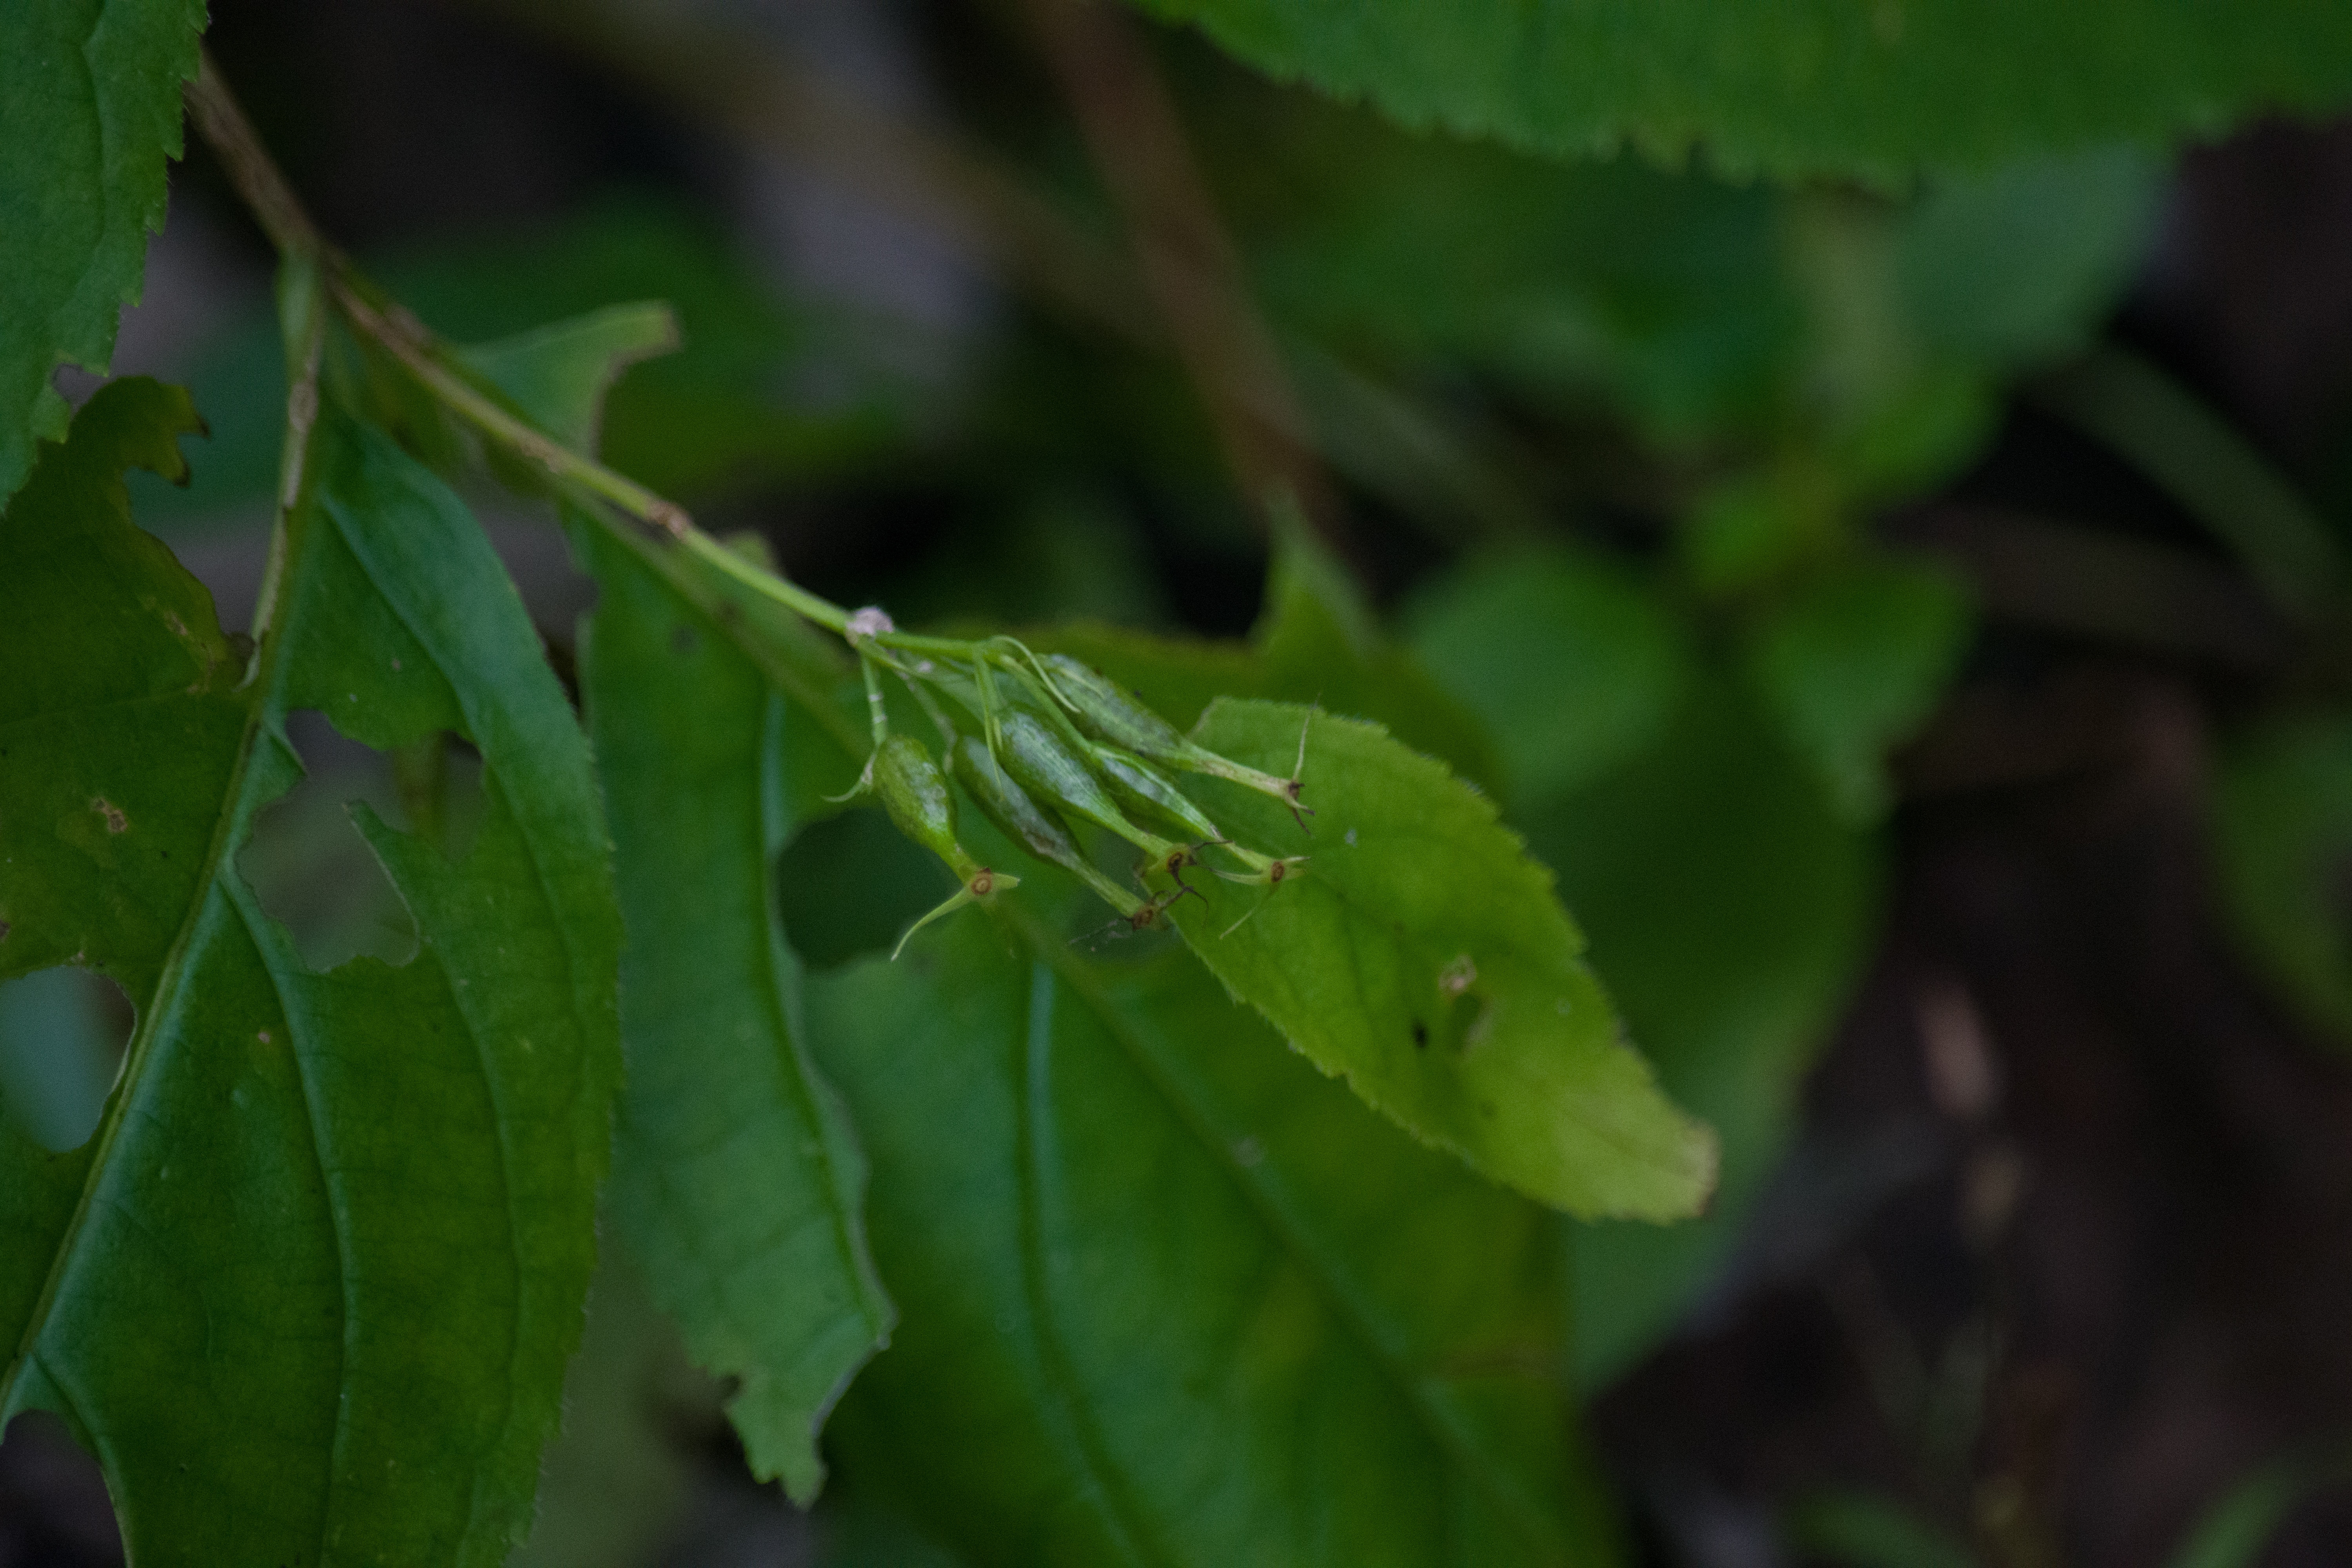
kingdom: Plantae
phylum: Tracheophyta
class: Magnoliopsida
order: Dipsacales
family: Caprifoliaceae
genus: Diervilla
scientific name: Diervilla lonicera
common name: Bush Honeysuckle
